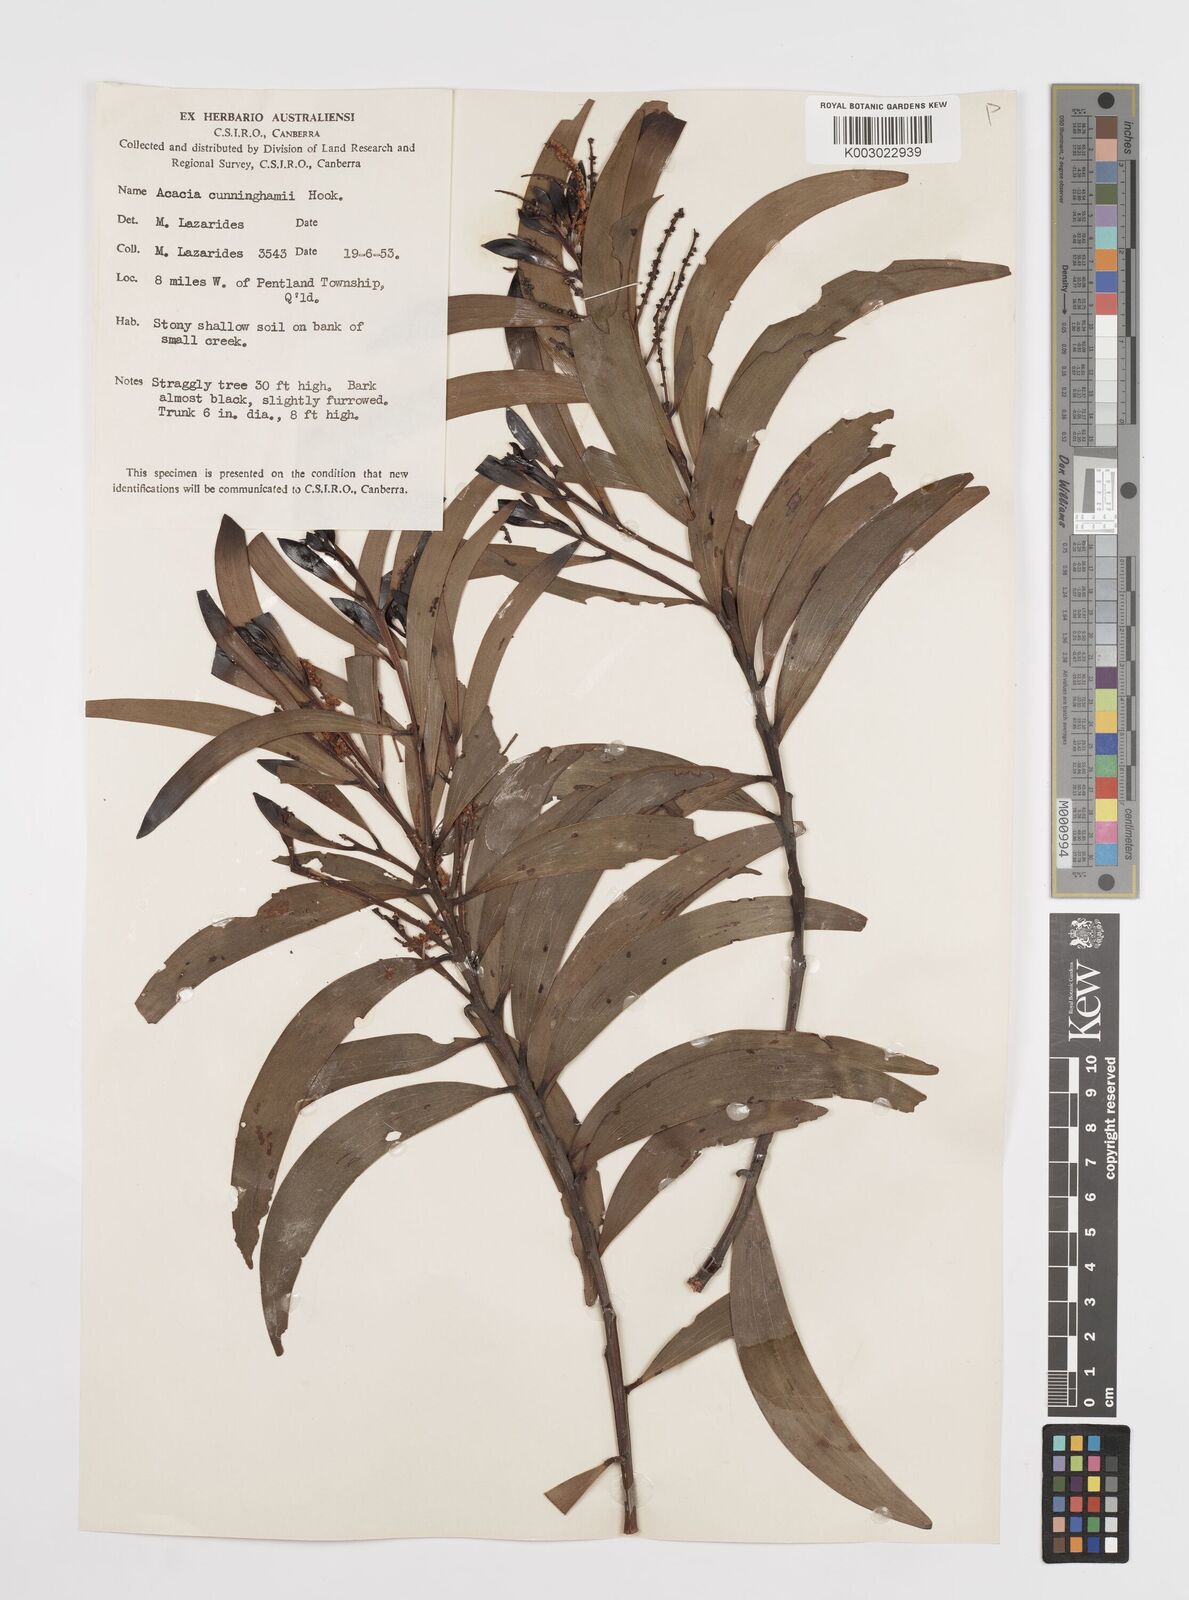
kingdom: Plantae
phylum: Tracheophyta
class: Magnoliopsida
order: Fabales
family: Fabaceae
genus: Acacia
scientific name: Acacia longispicata
